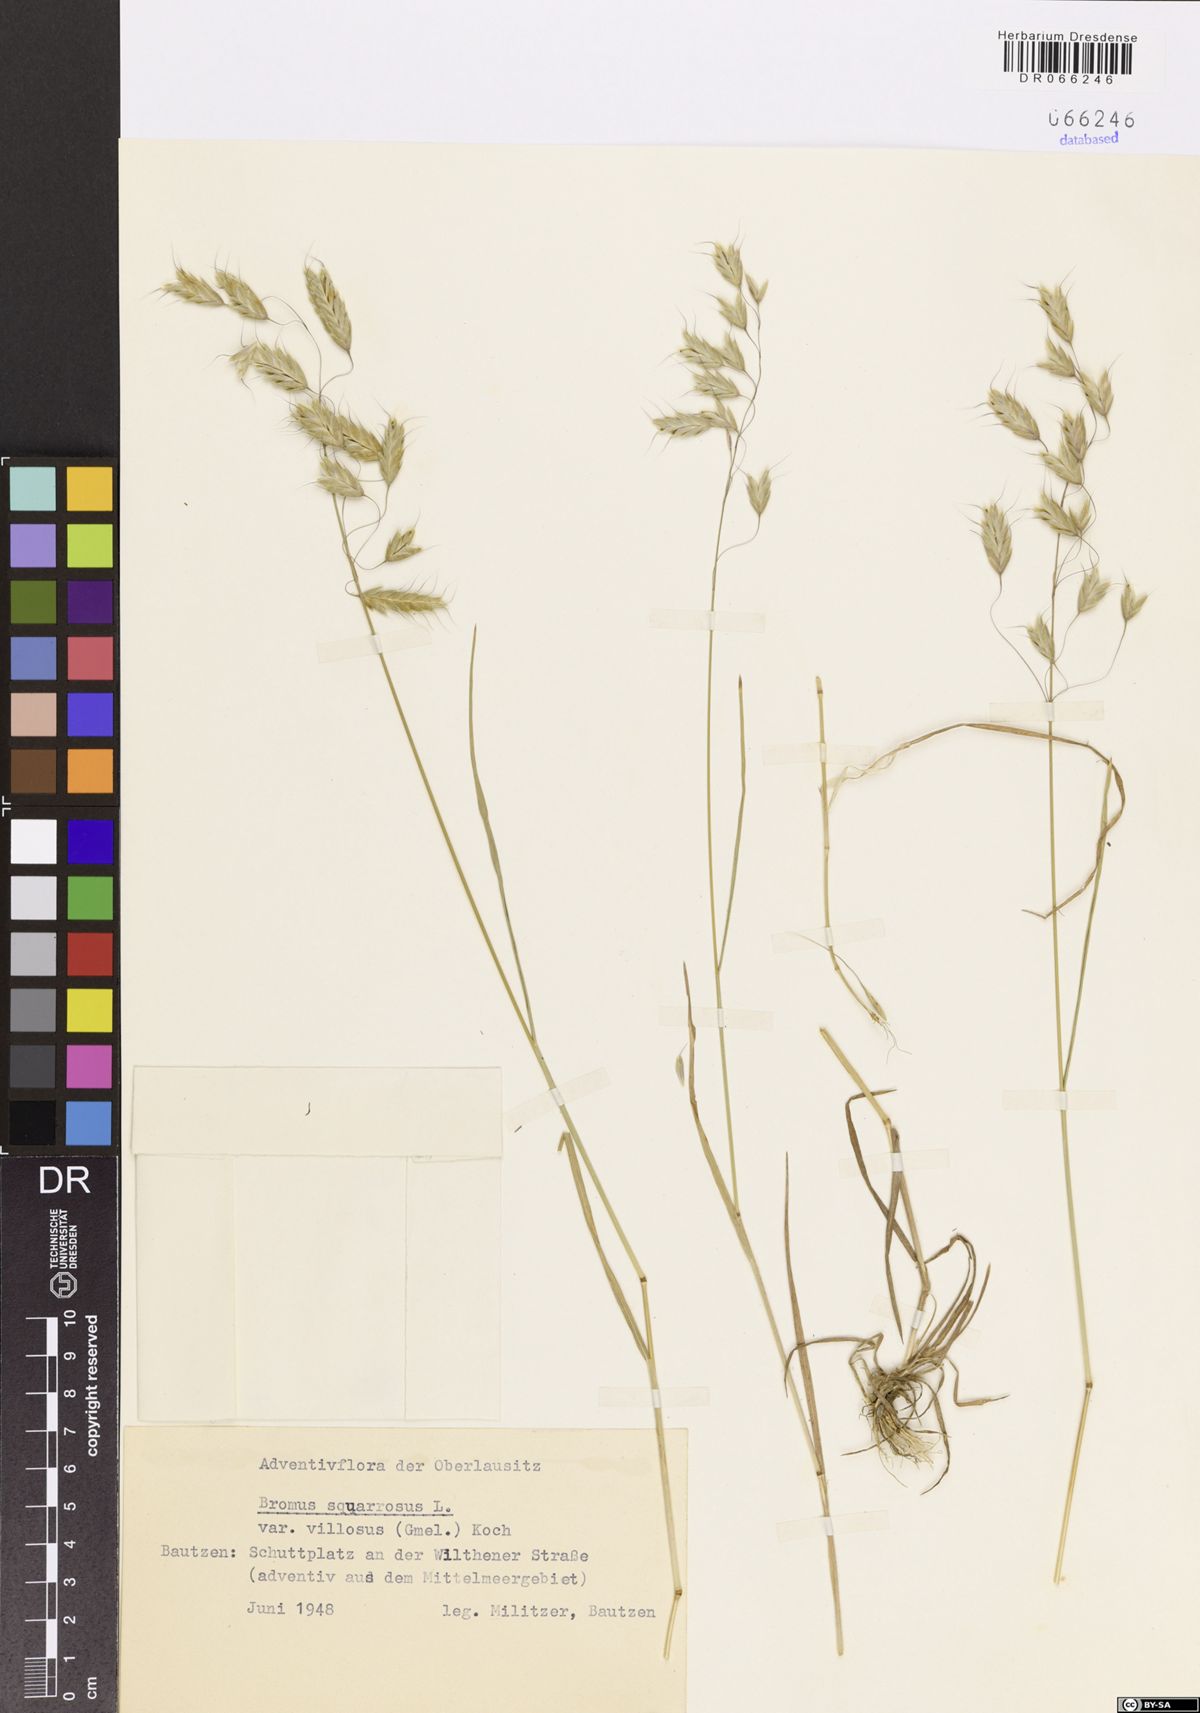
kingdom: Plantae
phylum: Tracheophyta
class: Liliopsida
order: Poales
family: Poaceae
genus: Bromus
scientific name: Bromus squarrosus
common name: Corn brome
